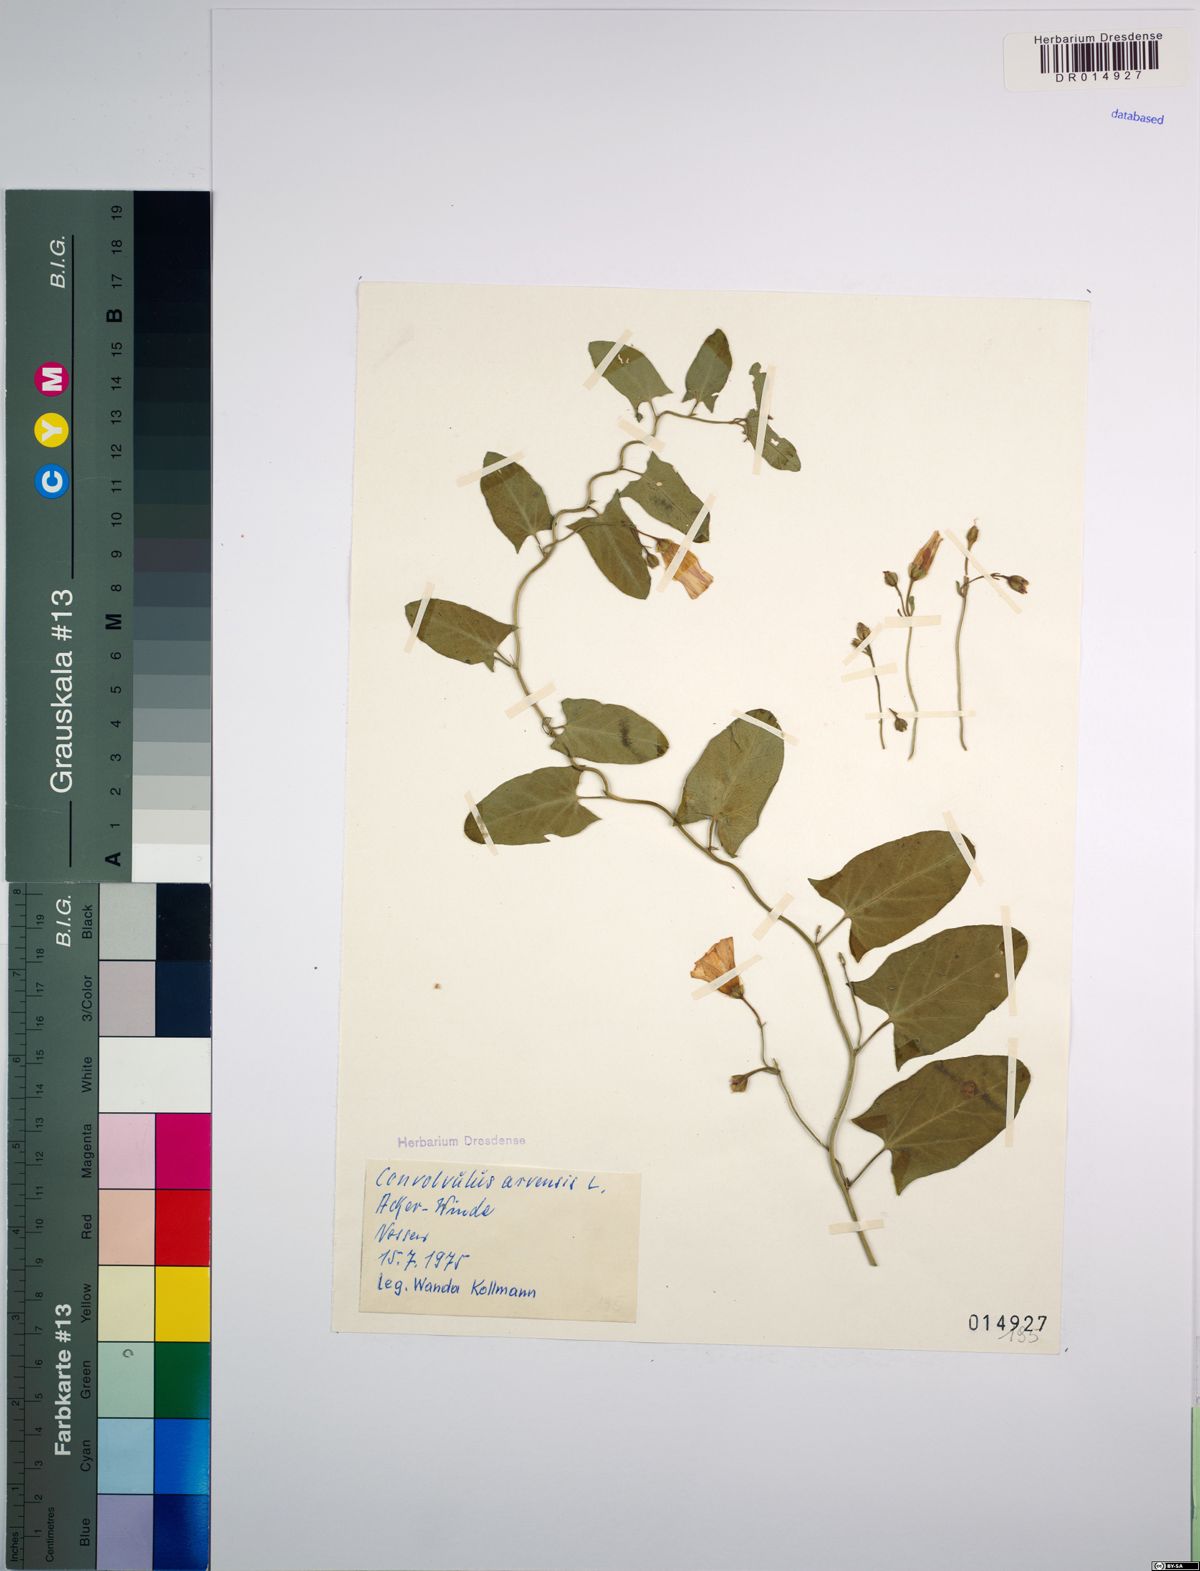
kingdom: Plantae
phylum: Tracheophyta
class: Magnoliopsida
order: Solanales
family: Convolvulaceae
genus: Convolvulus
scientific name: Convolvulus arvensis
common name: Field bindweed
